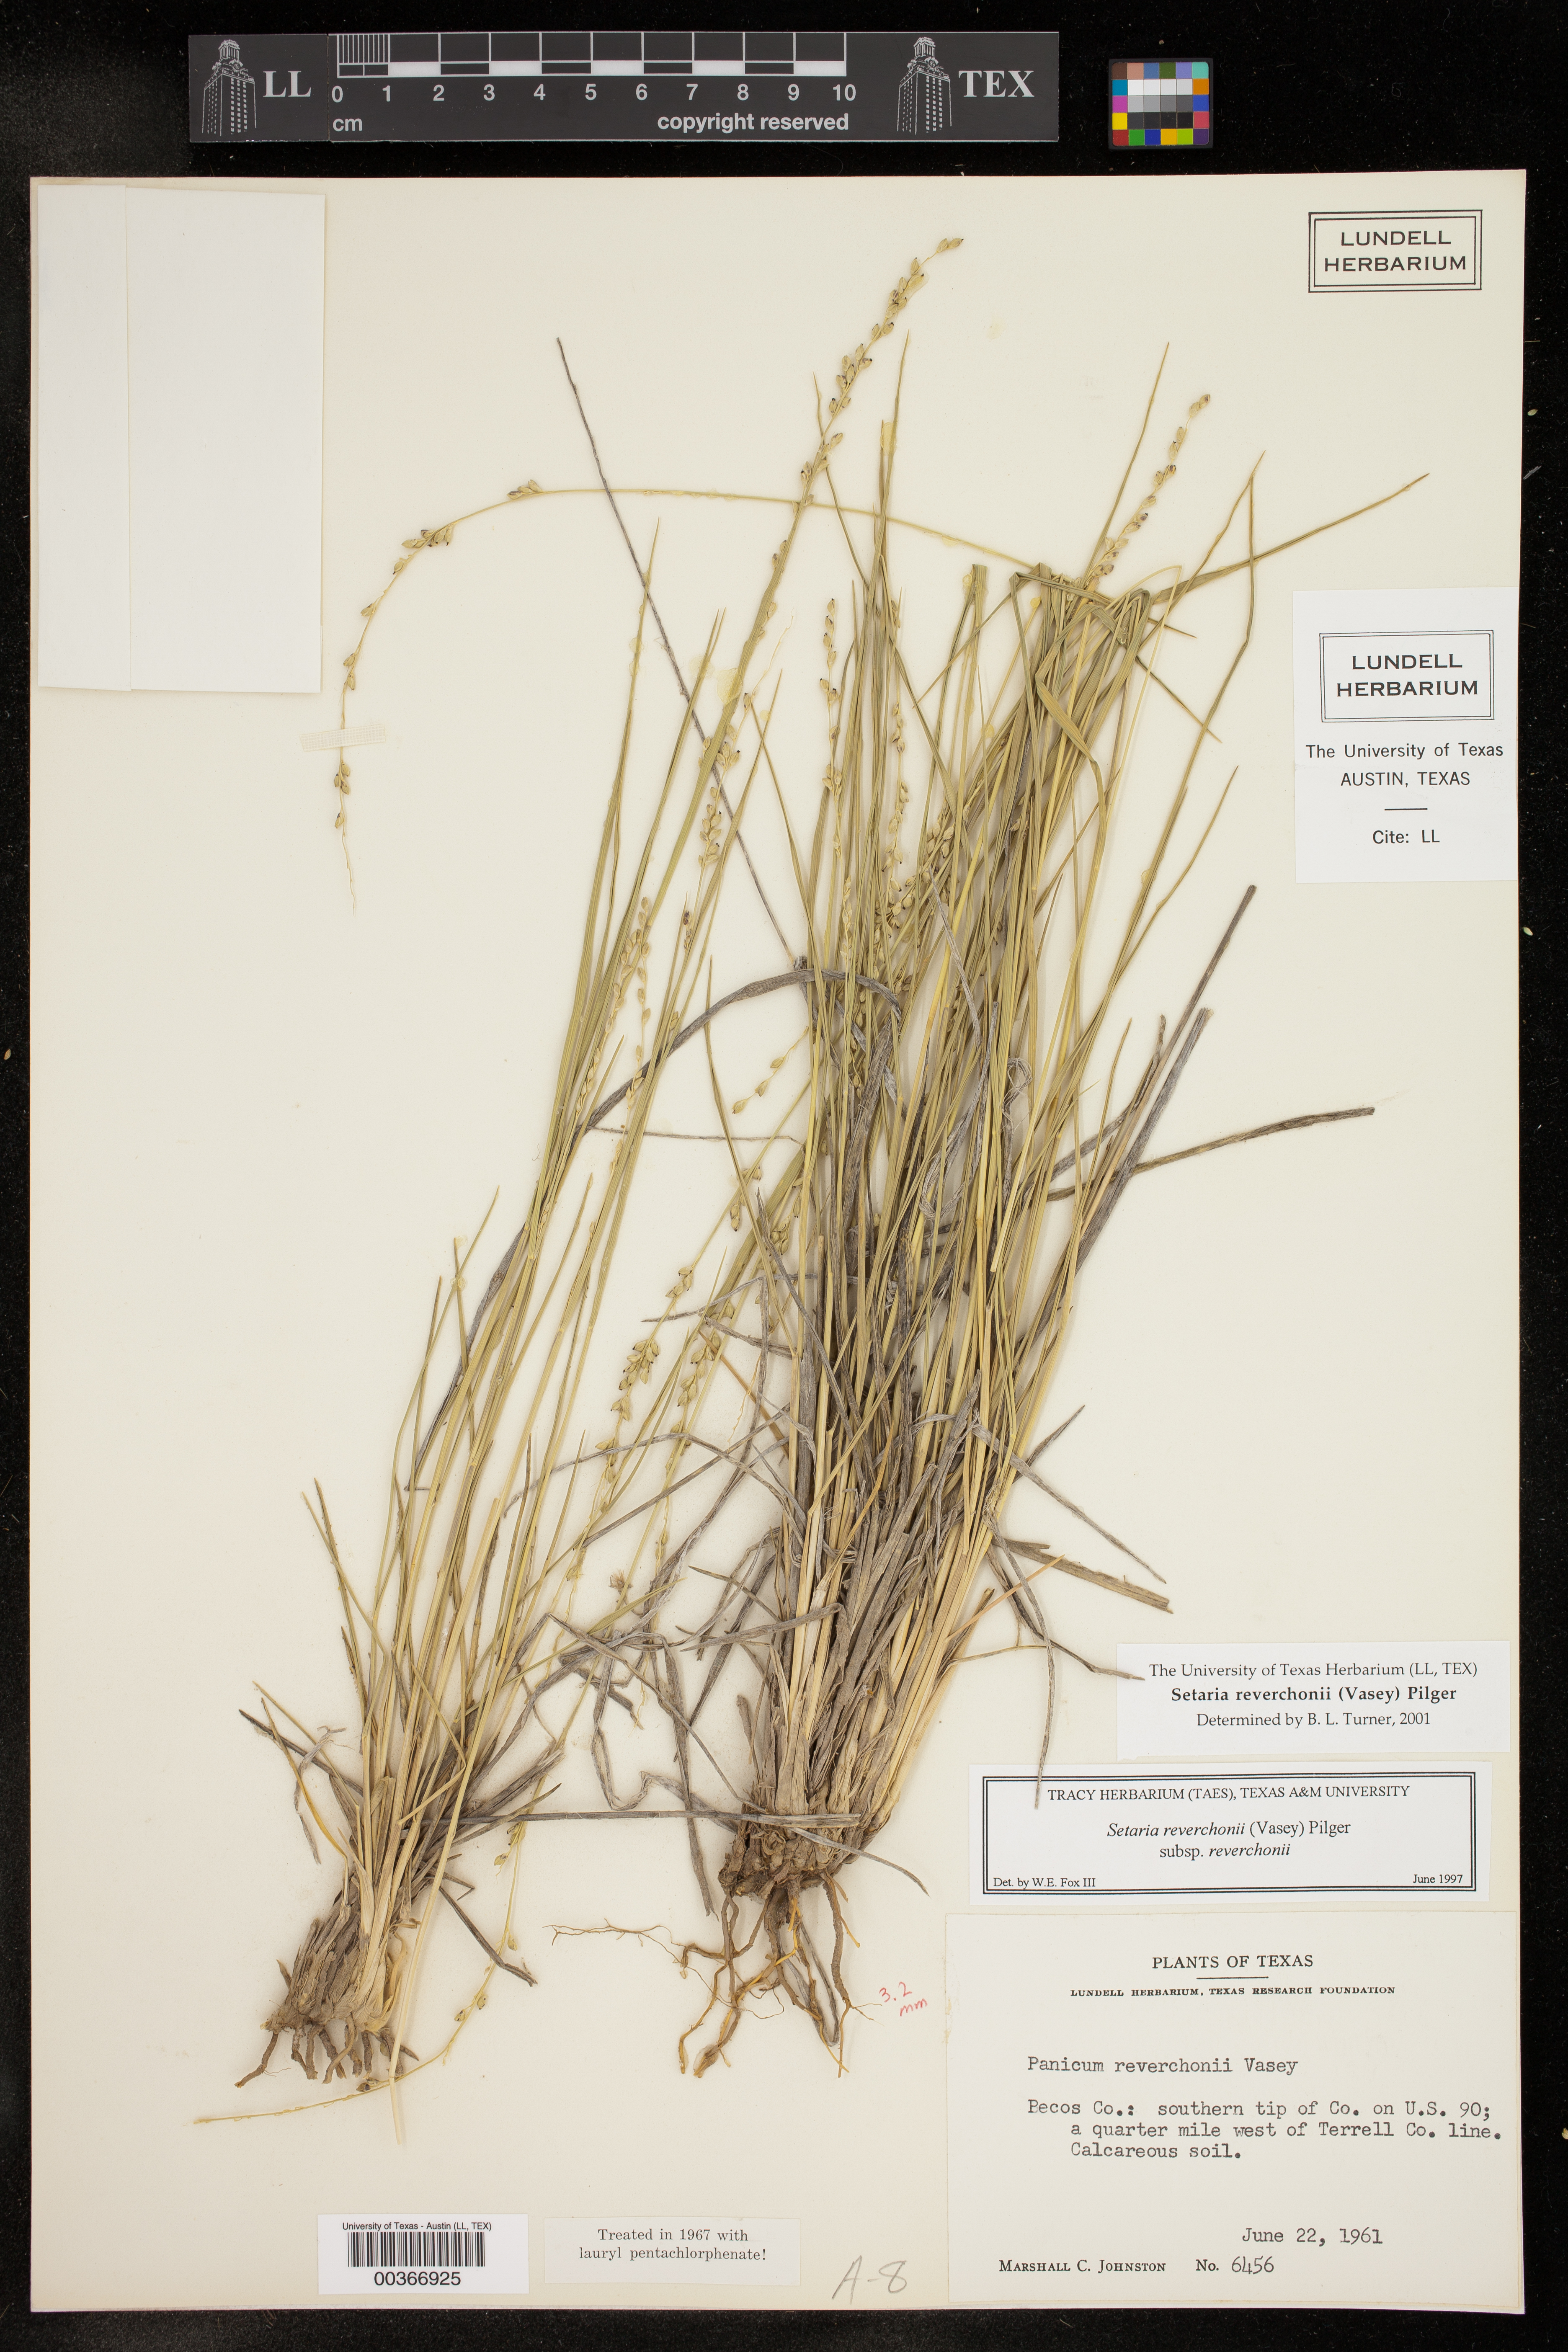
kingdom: Plantae
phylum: Tracheophyta
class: Liliopsida
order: Poales
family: Poaceae
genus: Setaria
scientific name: Setaria reverchonii
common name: Reverchon's bristle grass
